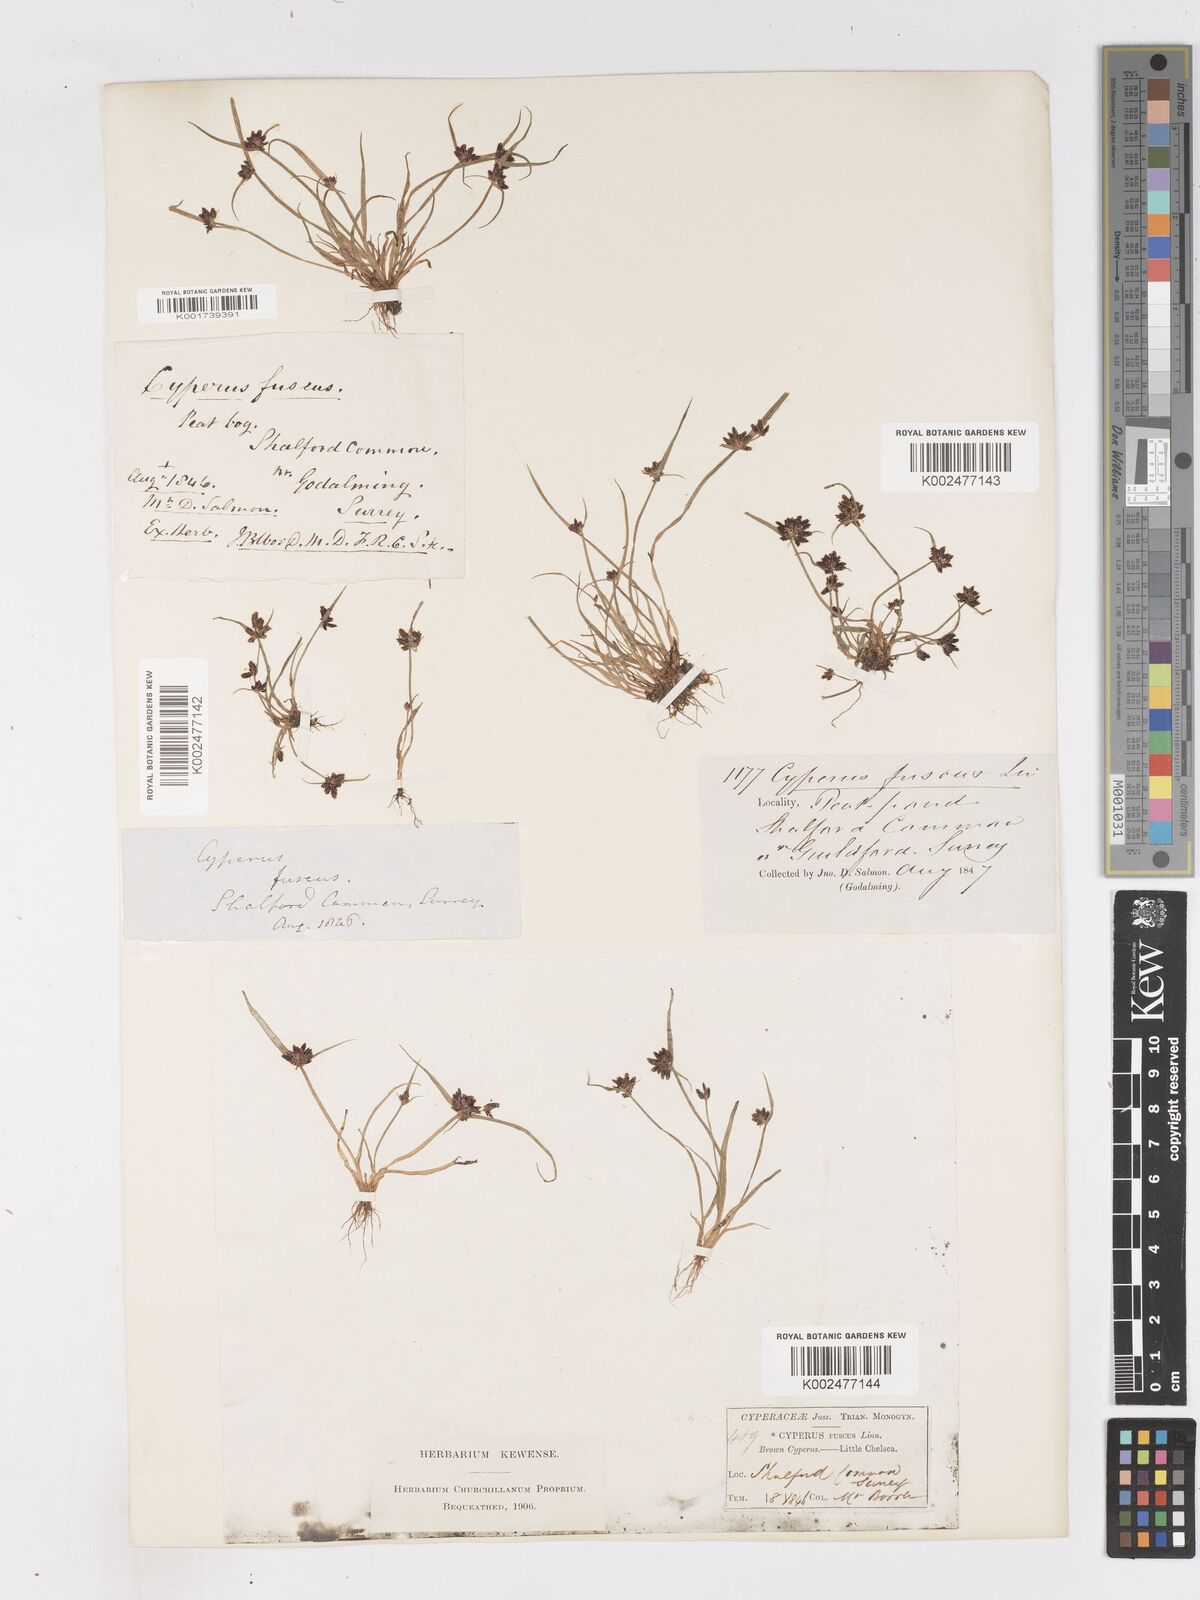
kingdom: Plantae
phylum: Tracheophyta
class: Liliopsida
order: Poales
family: Cyperaceae
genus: Cyperus
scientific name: Cyperus fuscus
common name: Brown galingale
